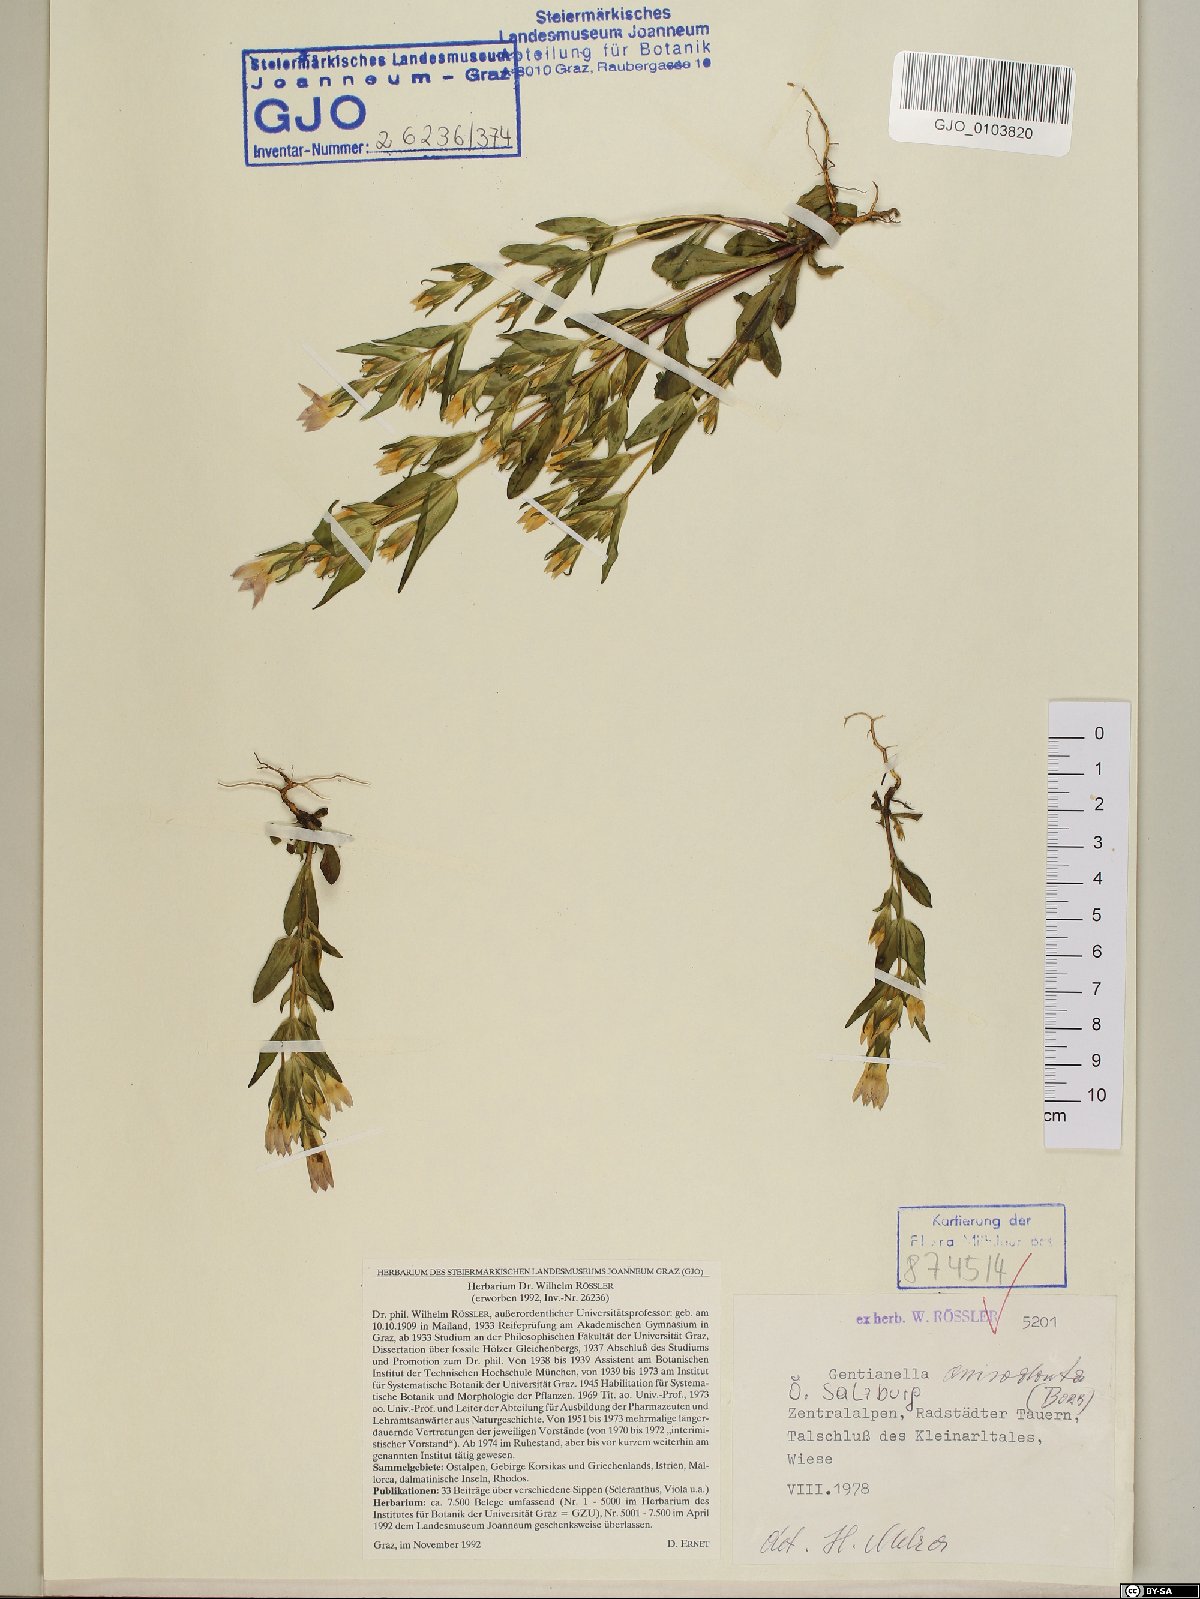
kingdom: Plantae
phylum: Tracheophyta
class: Magnoliopsida
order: Gentianales
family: Gentianaceae
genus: Gentianella
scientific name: Gentianella anisodonta
